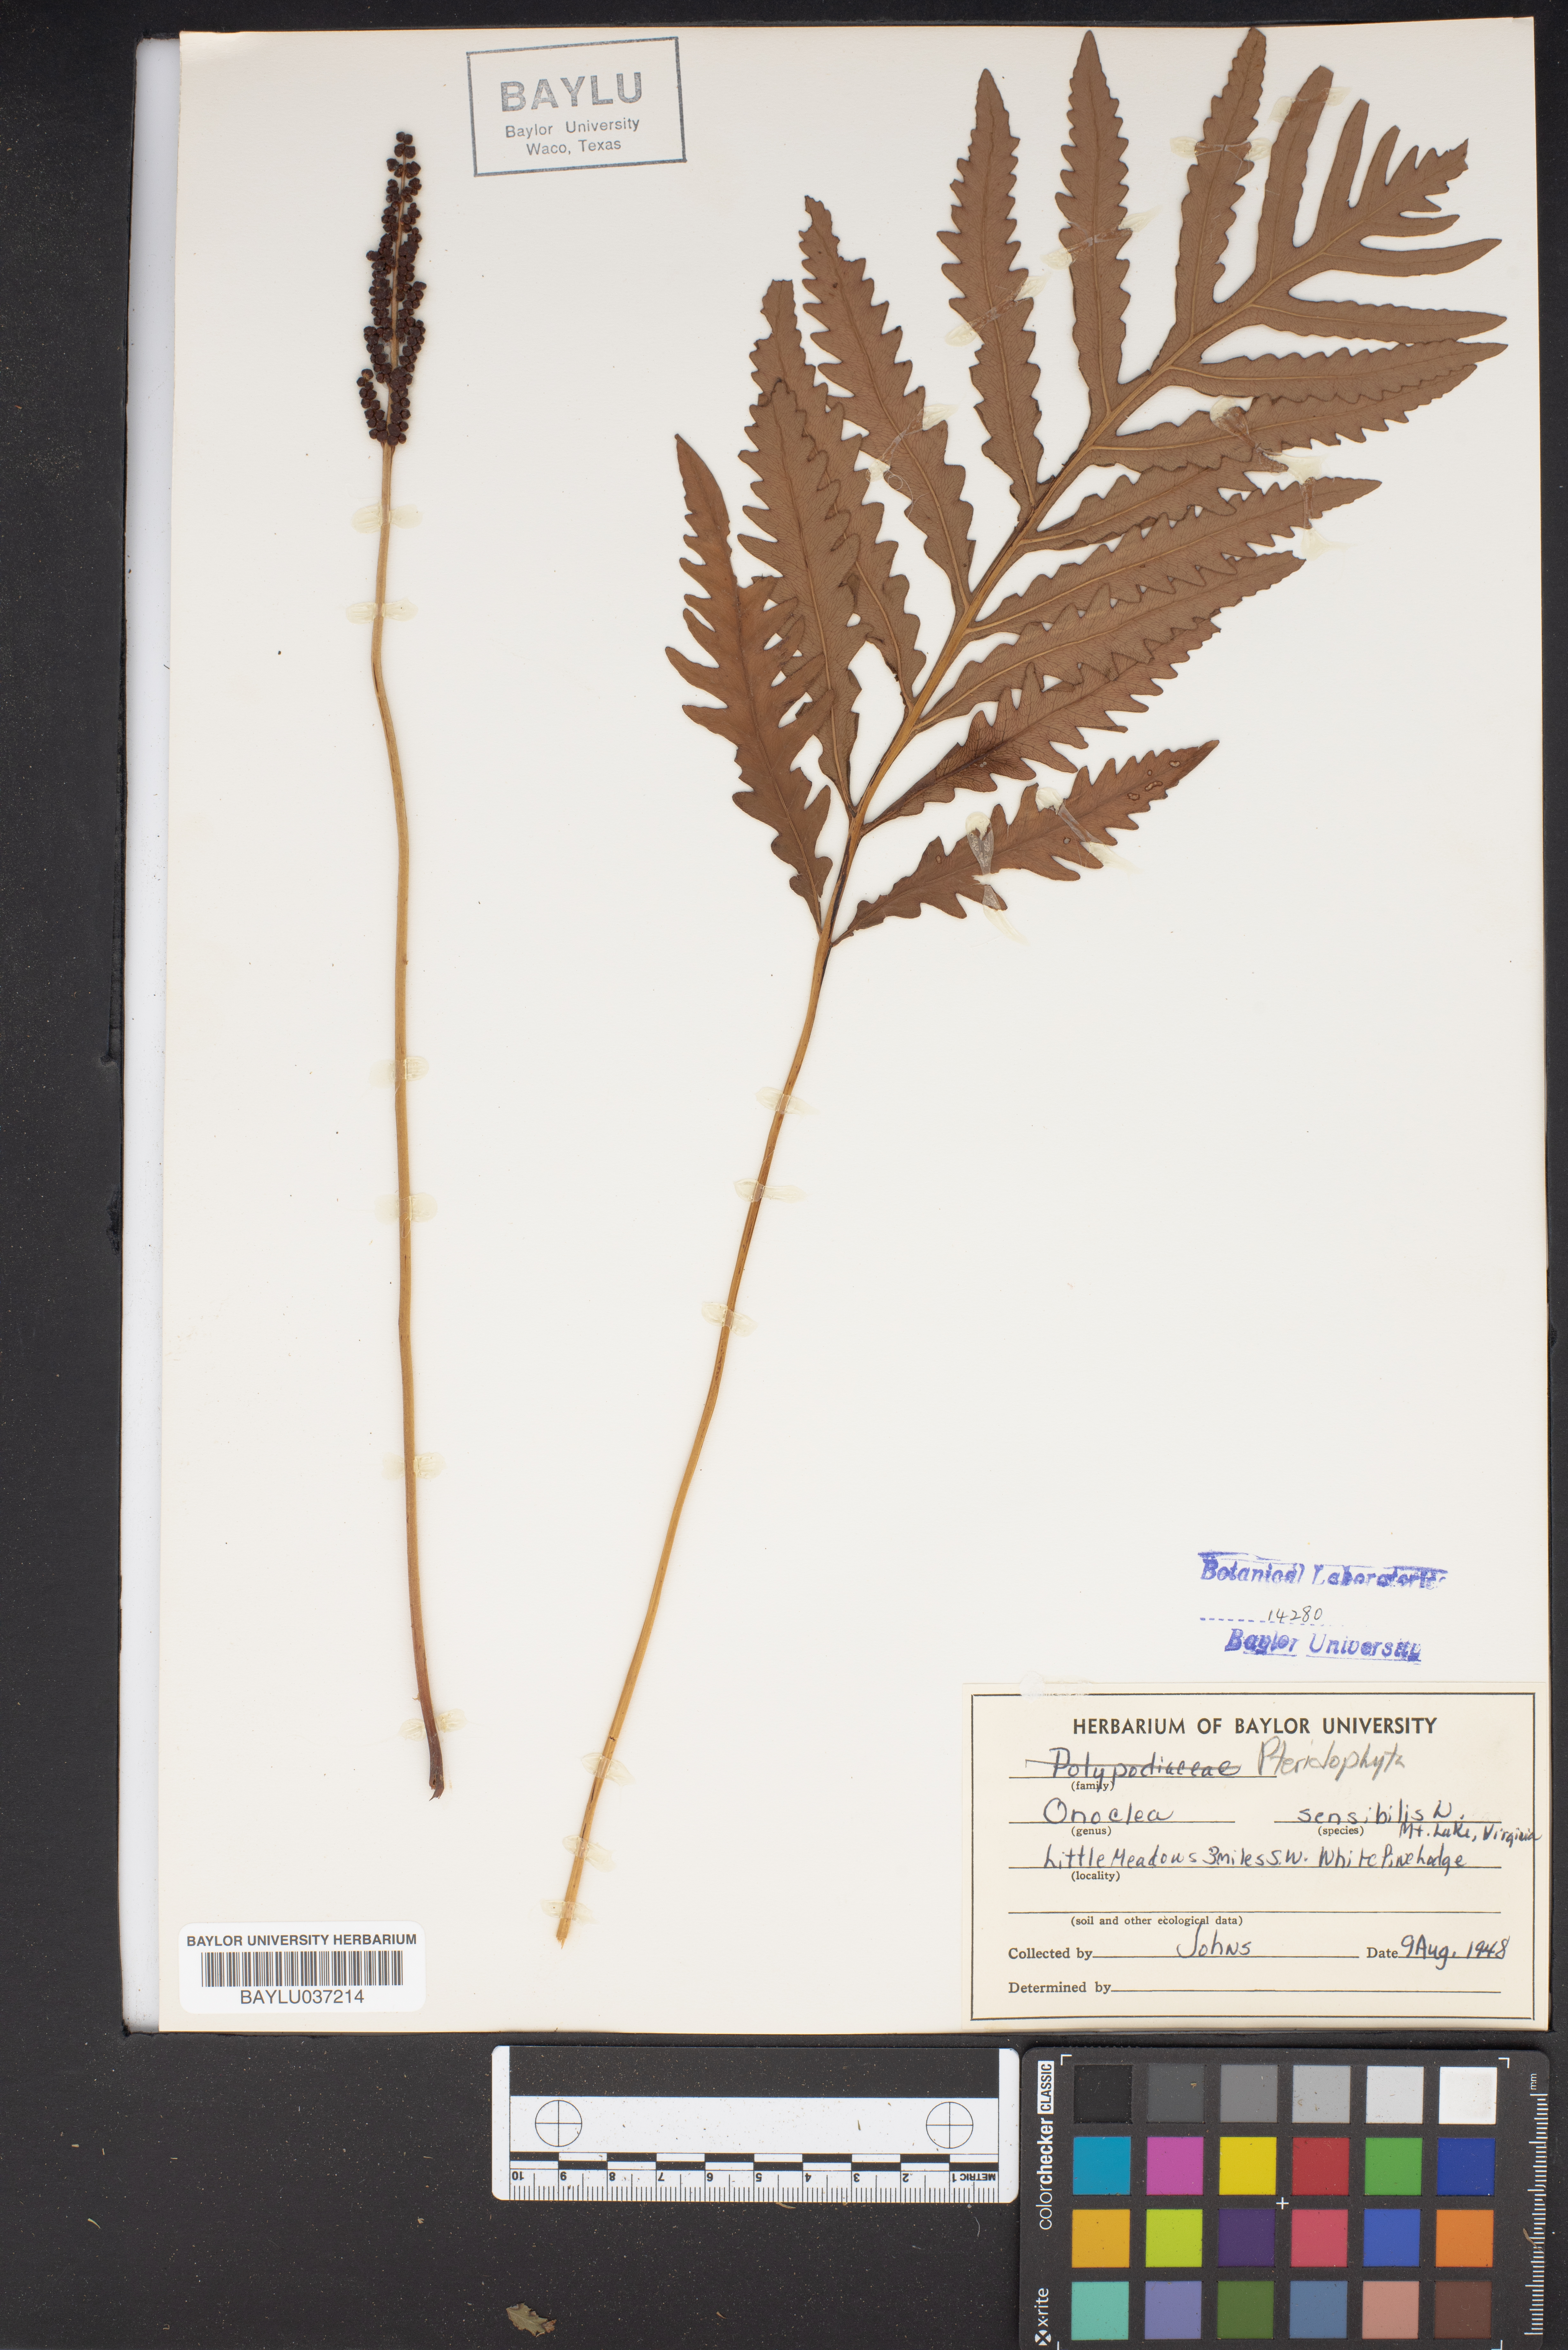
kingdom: Plantae
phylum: Tracheophyta
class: Polypodiopsida
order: Polypodiales
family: Onocleaceae
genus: Onoclea
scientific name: Onoclea sensibilis
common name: Sensitive fern
